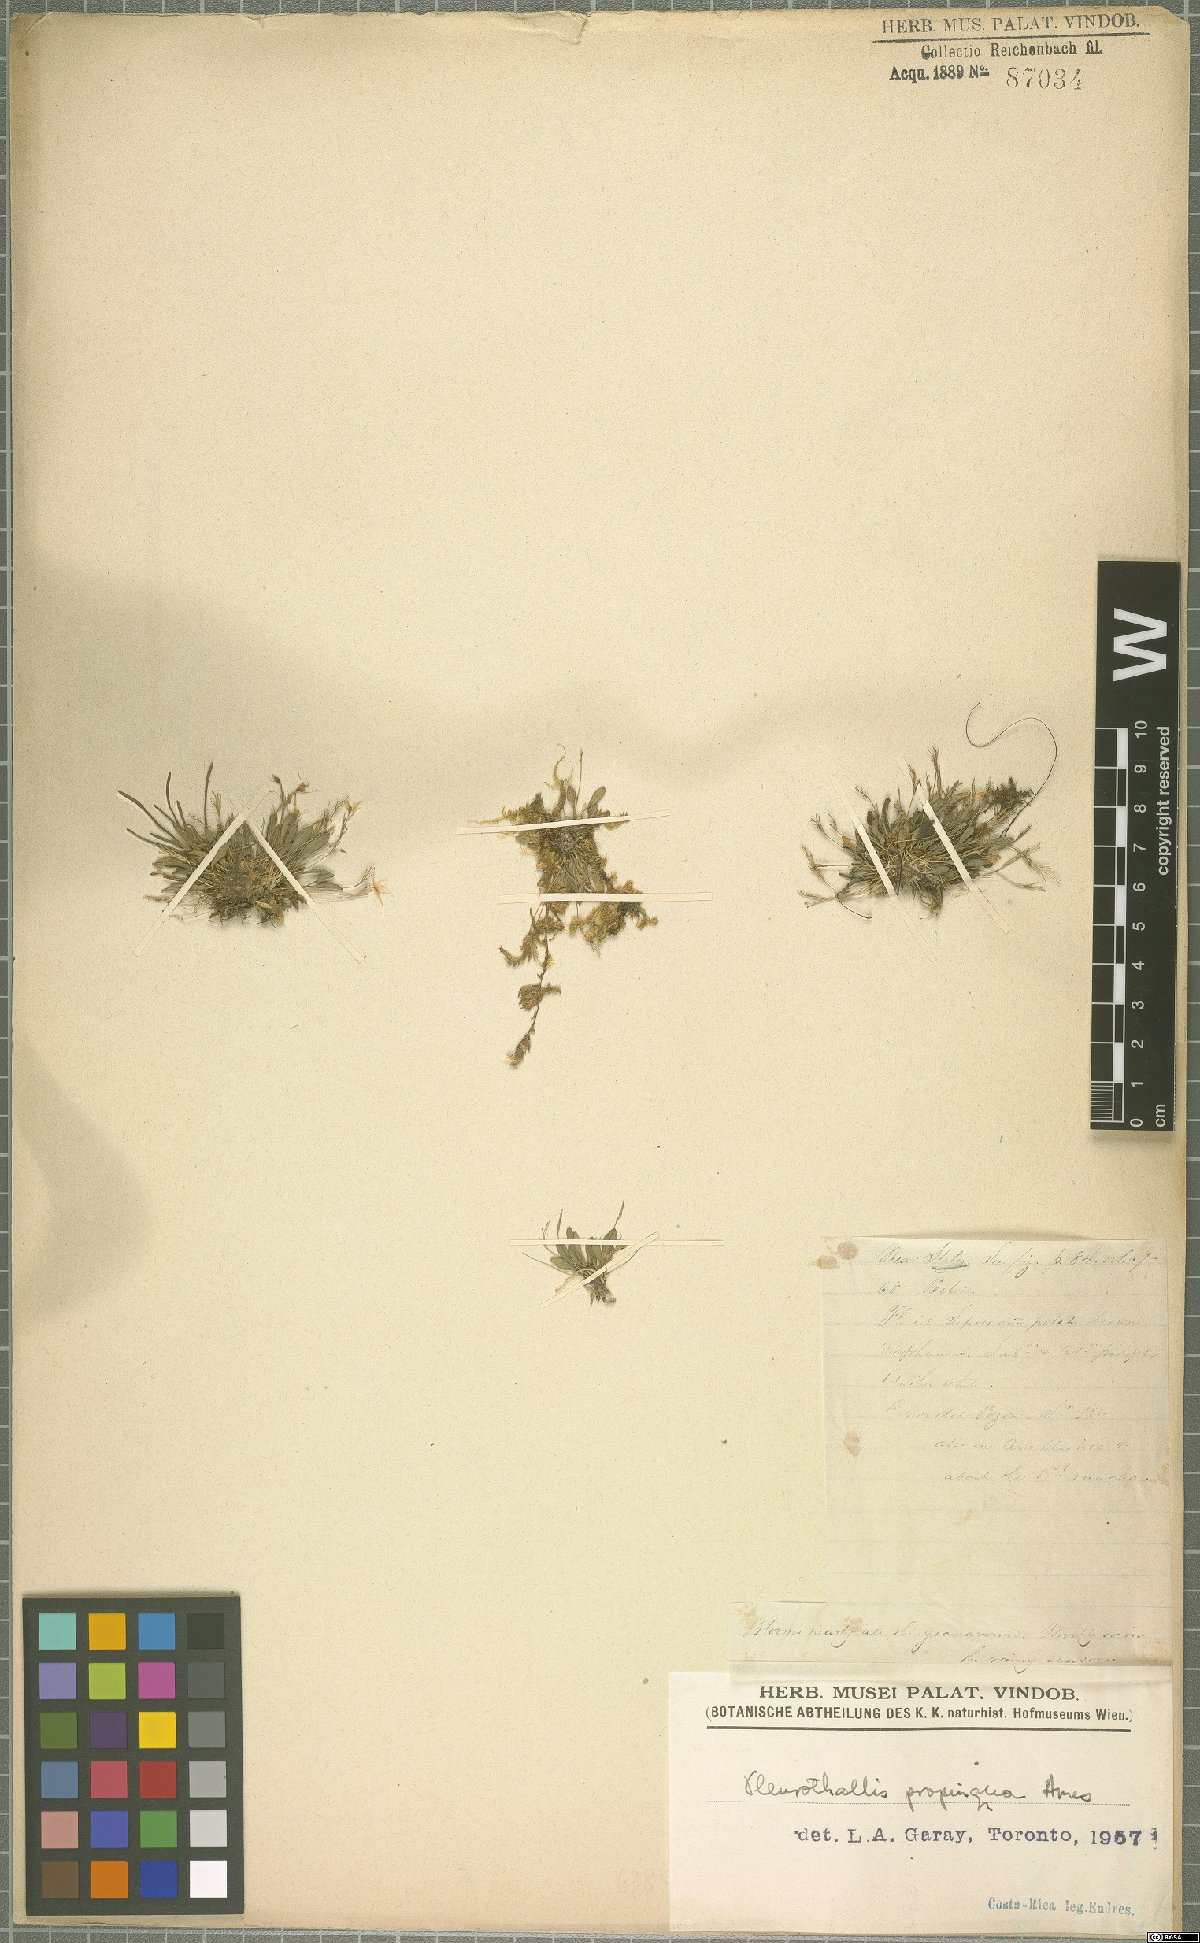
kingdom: Plantae
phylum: Tracheophyta
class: Liliopsida
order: Asparagales
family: Orchidaceae
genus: Platystele
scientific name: Platystele propinqua
